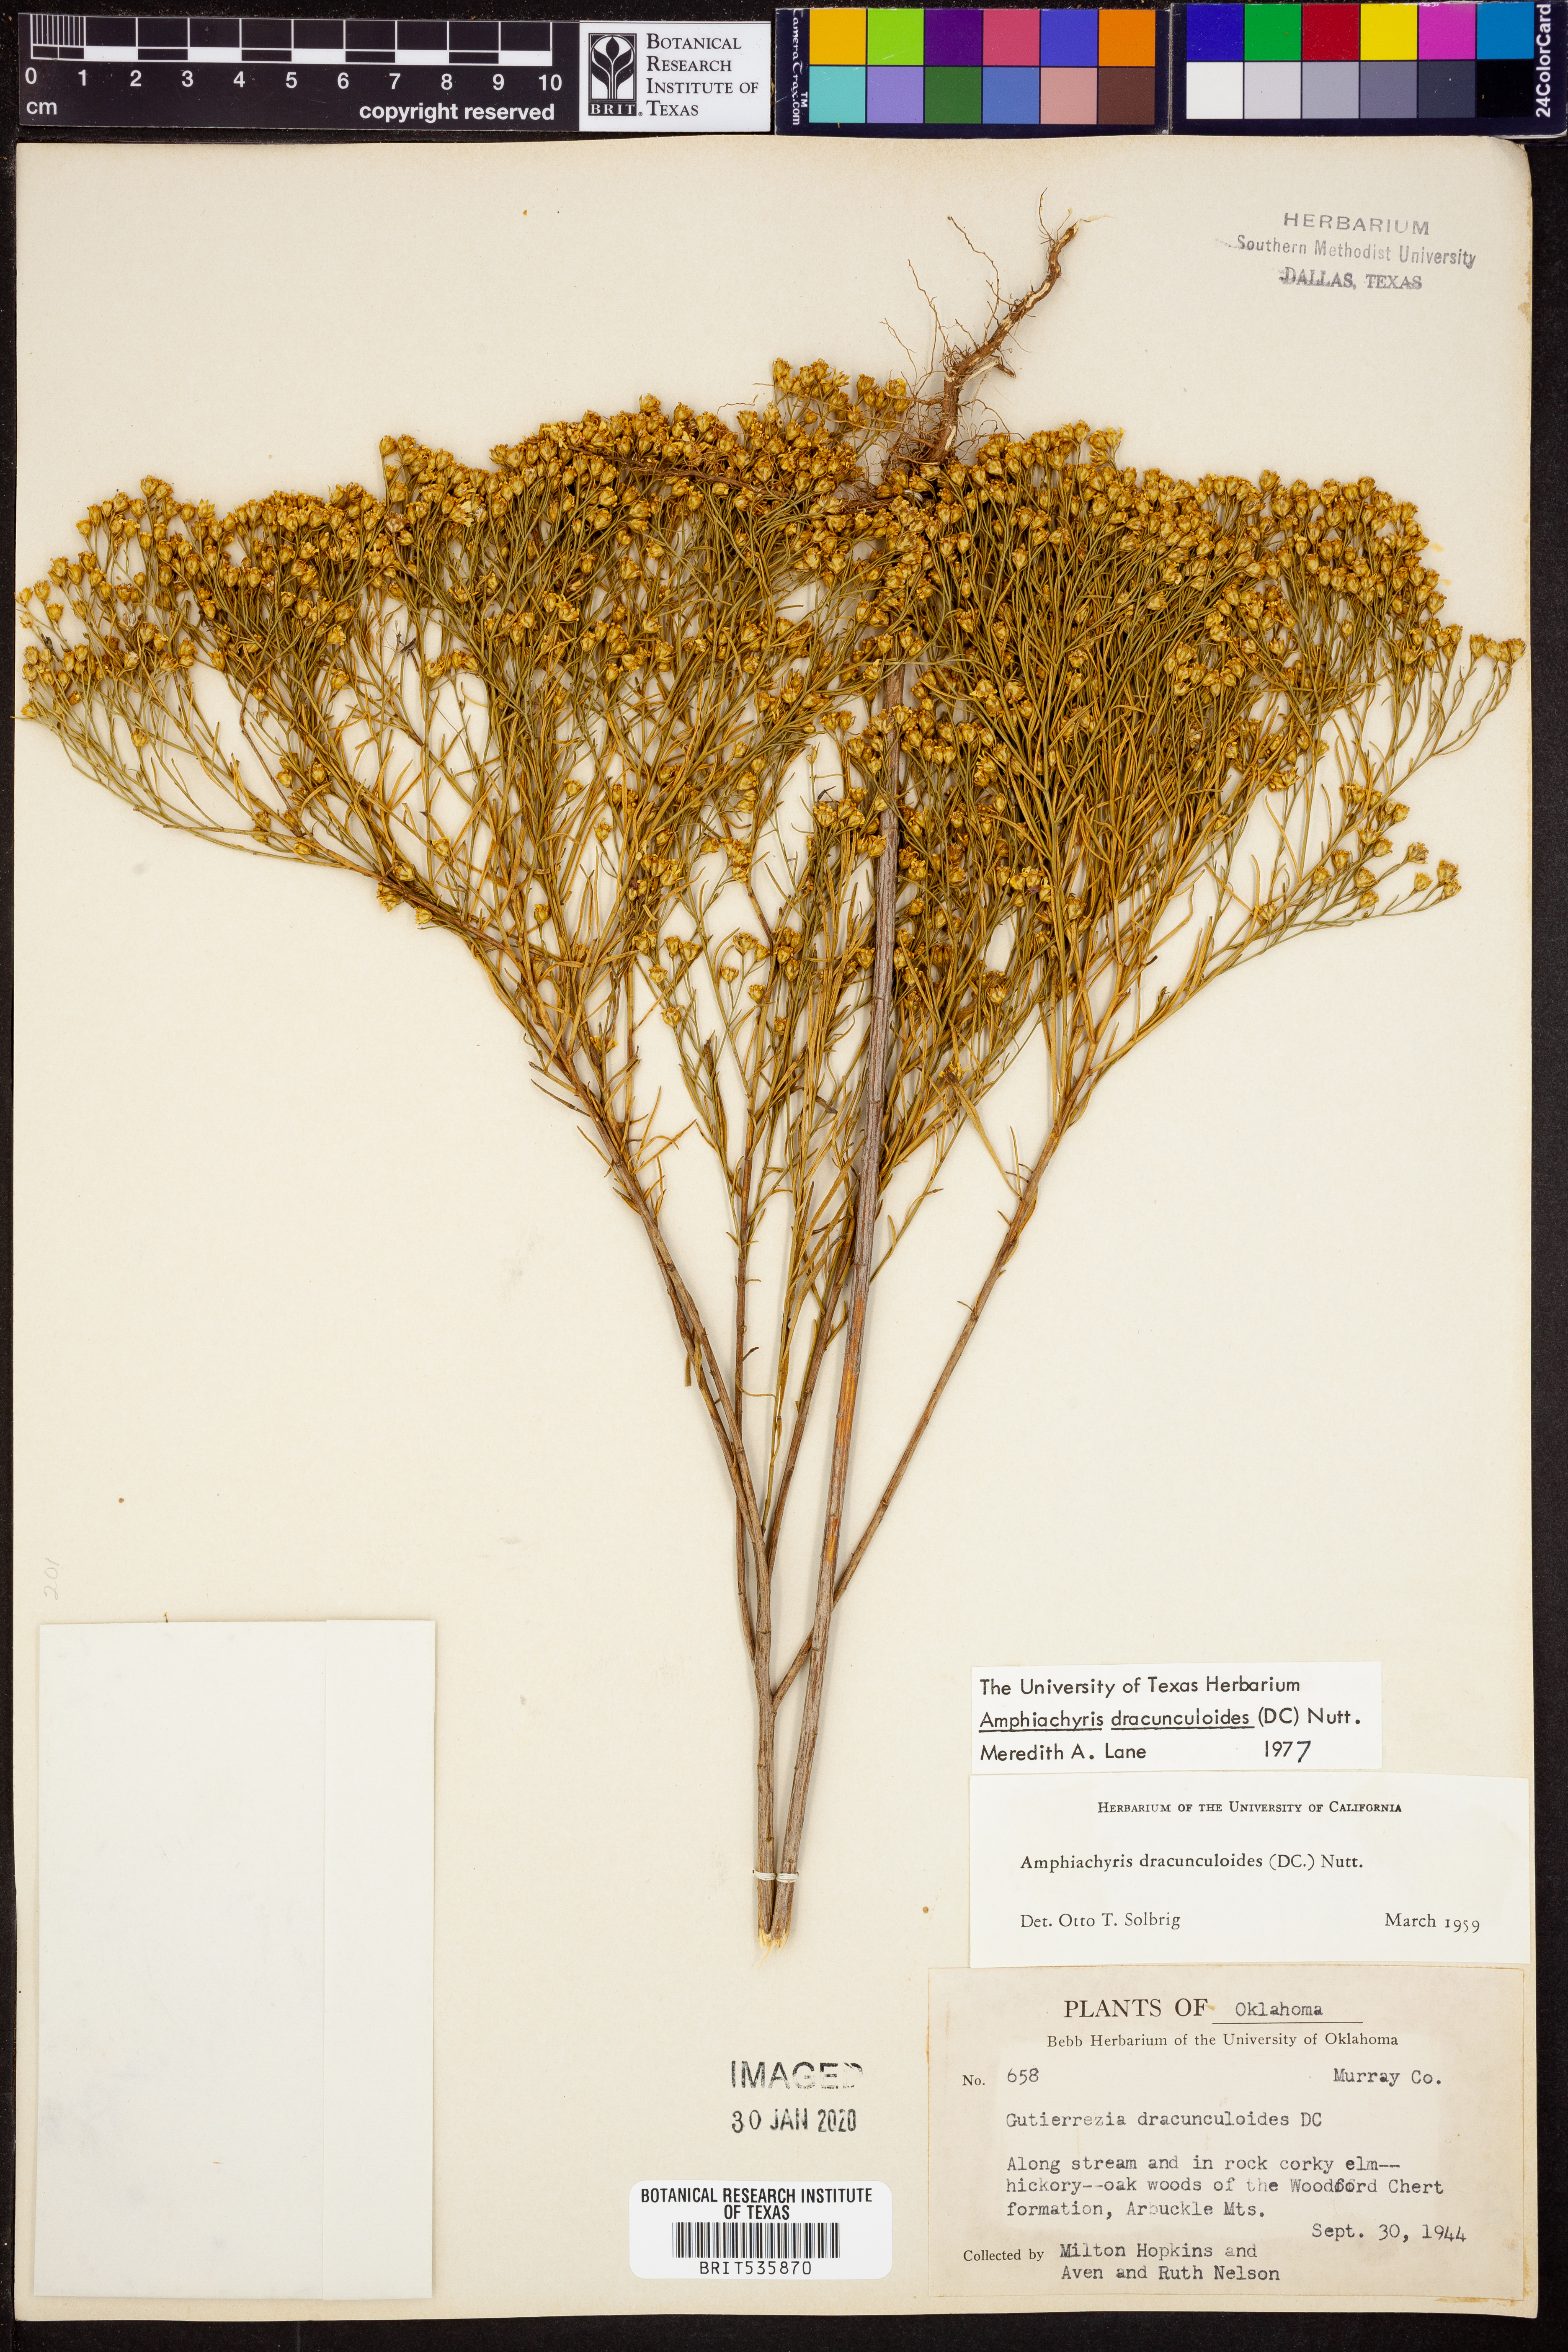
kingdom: Plantae
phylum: Tracheophyta
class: Magnoliopsida
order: Asterales
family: Asteraceae
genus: Amphiachyris
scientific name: Amphiachyris dracunculoides
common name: Broomweed
